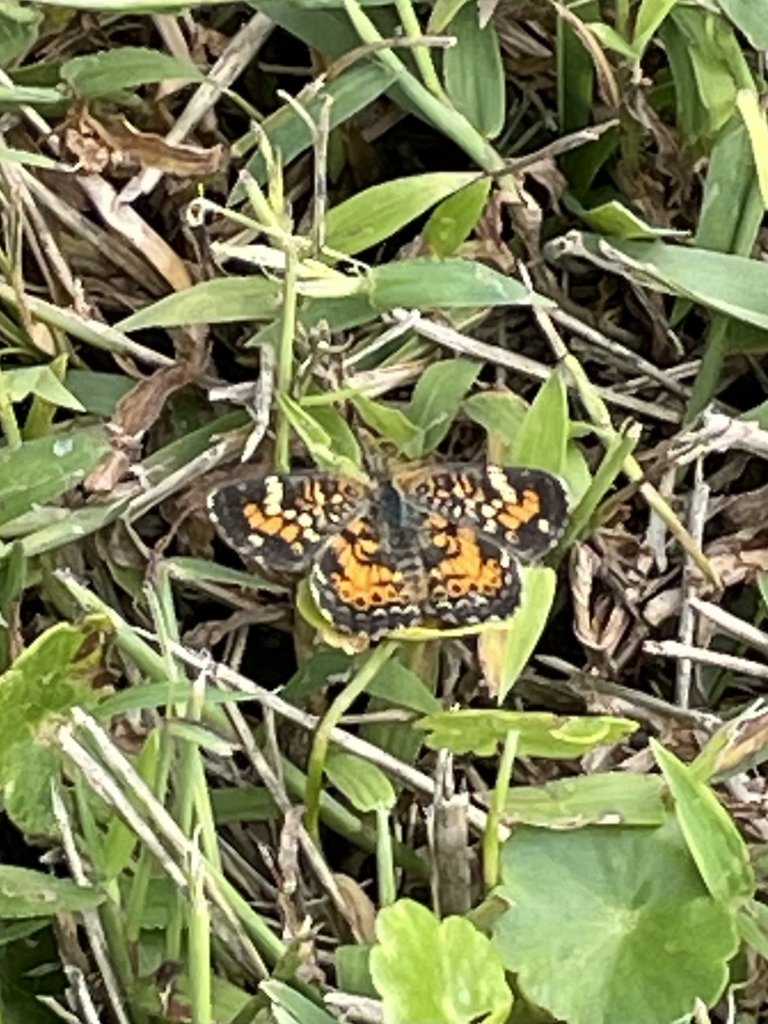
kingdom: Animalia
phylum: Arthropoda
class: Insecta
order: Lepidoptera
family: Nymphalidae
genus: Phyciodes
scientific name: Phyciodes phaon
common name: Phaon Crescent
